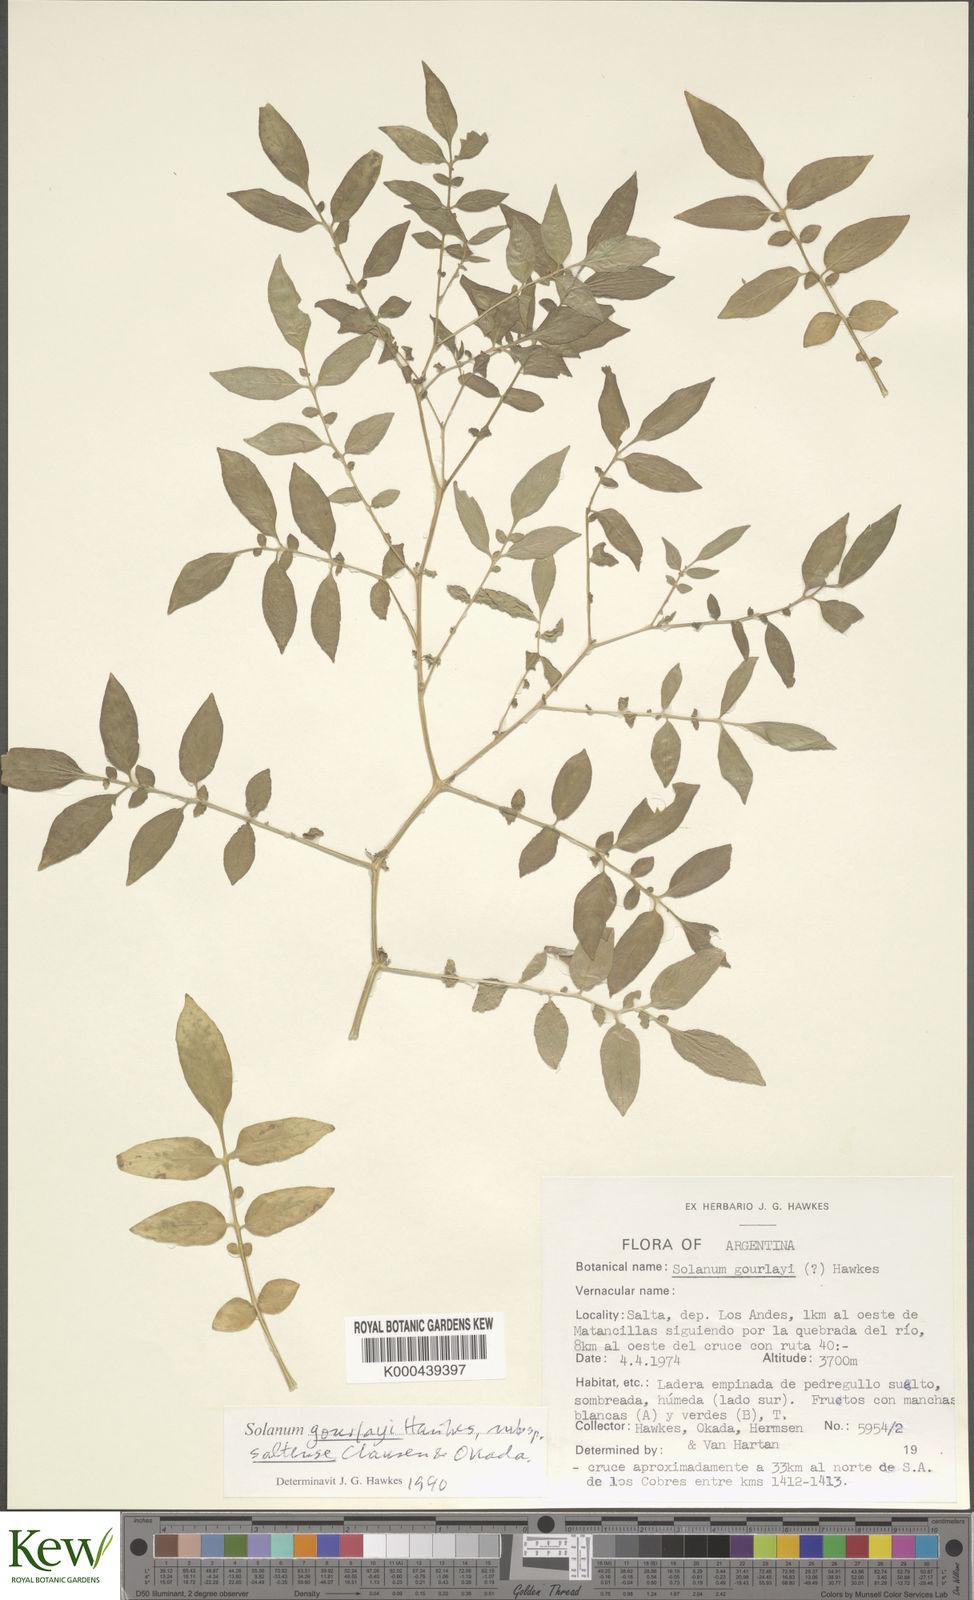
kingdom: Plantae
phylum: Tracheophyta
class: Magnoliopsida
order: Solanales
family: Solanaceae
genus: Solanum
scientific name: Solanum brevicaule
